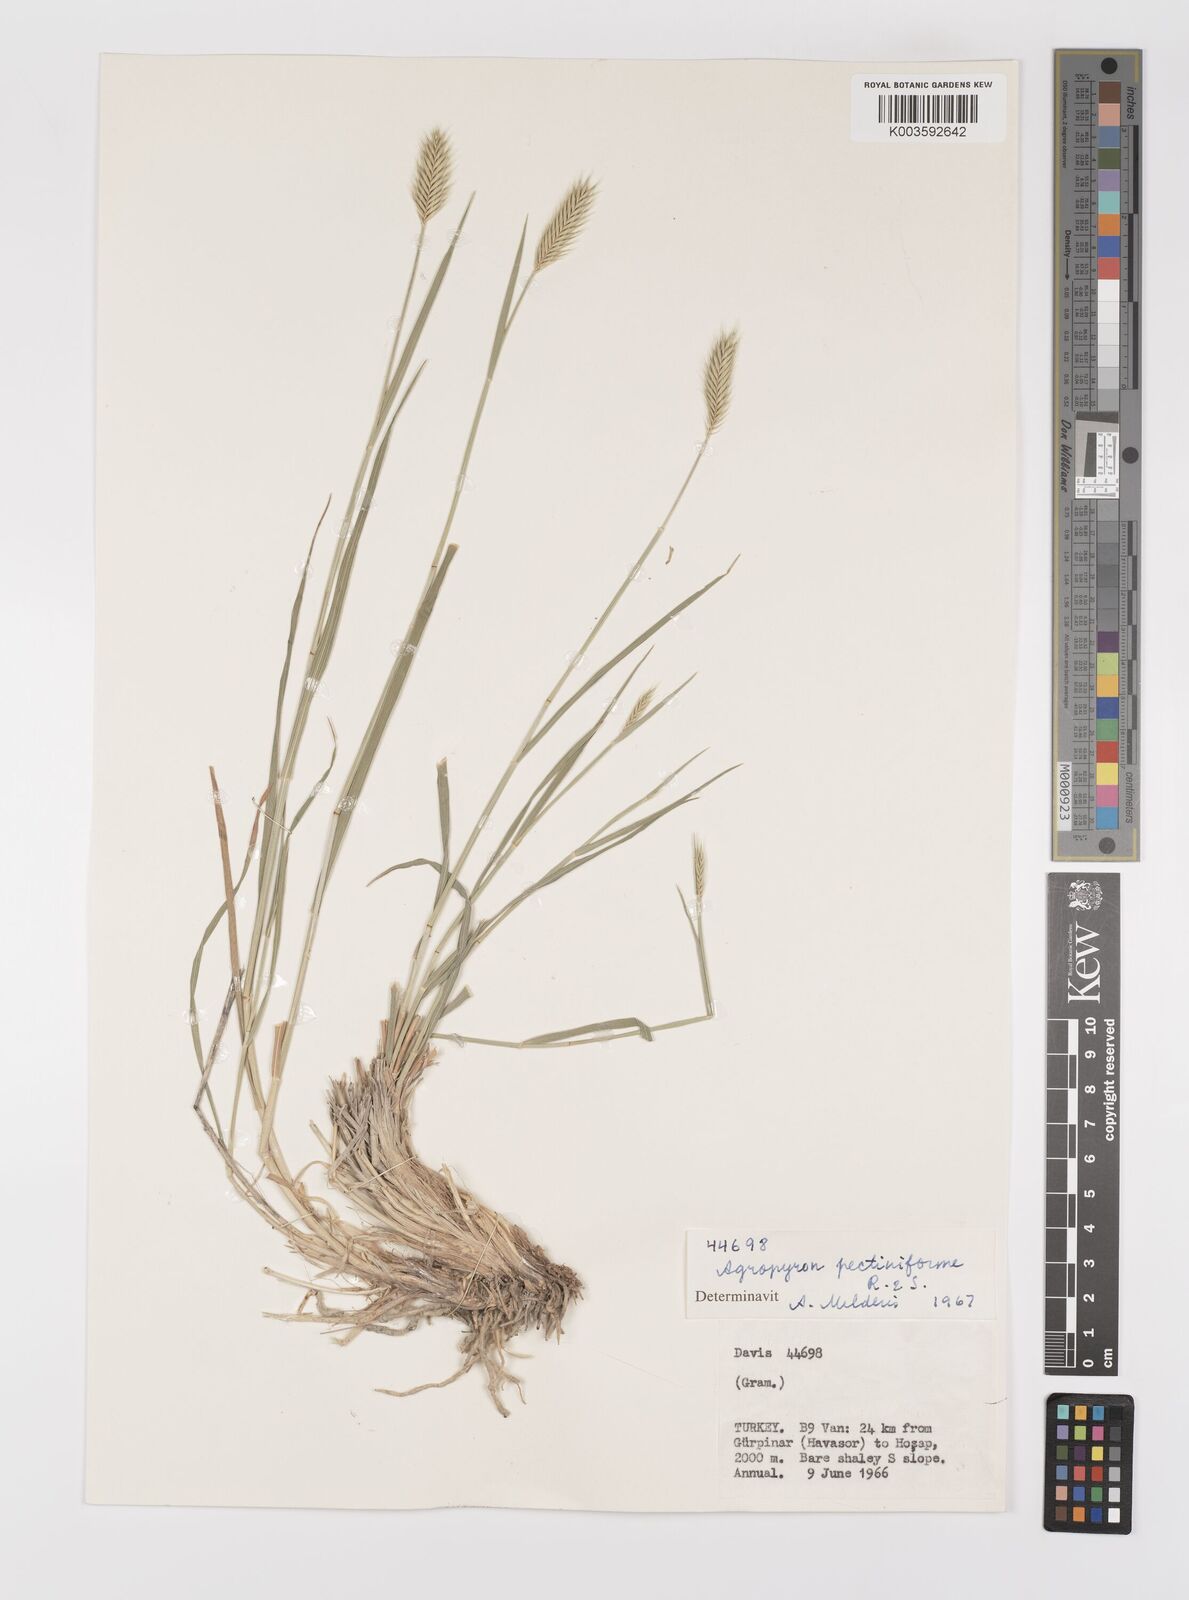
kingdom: Plantae
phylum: Tracheophyta
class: Liliopsida
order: Poales
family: Poaceae
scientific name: Poaceae
